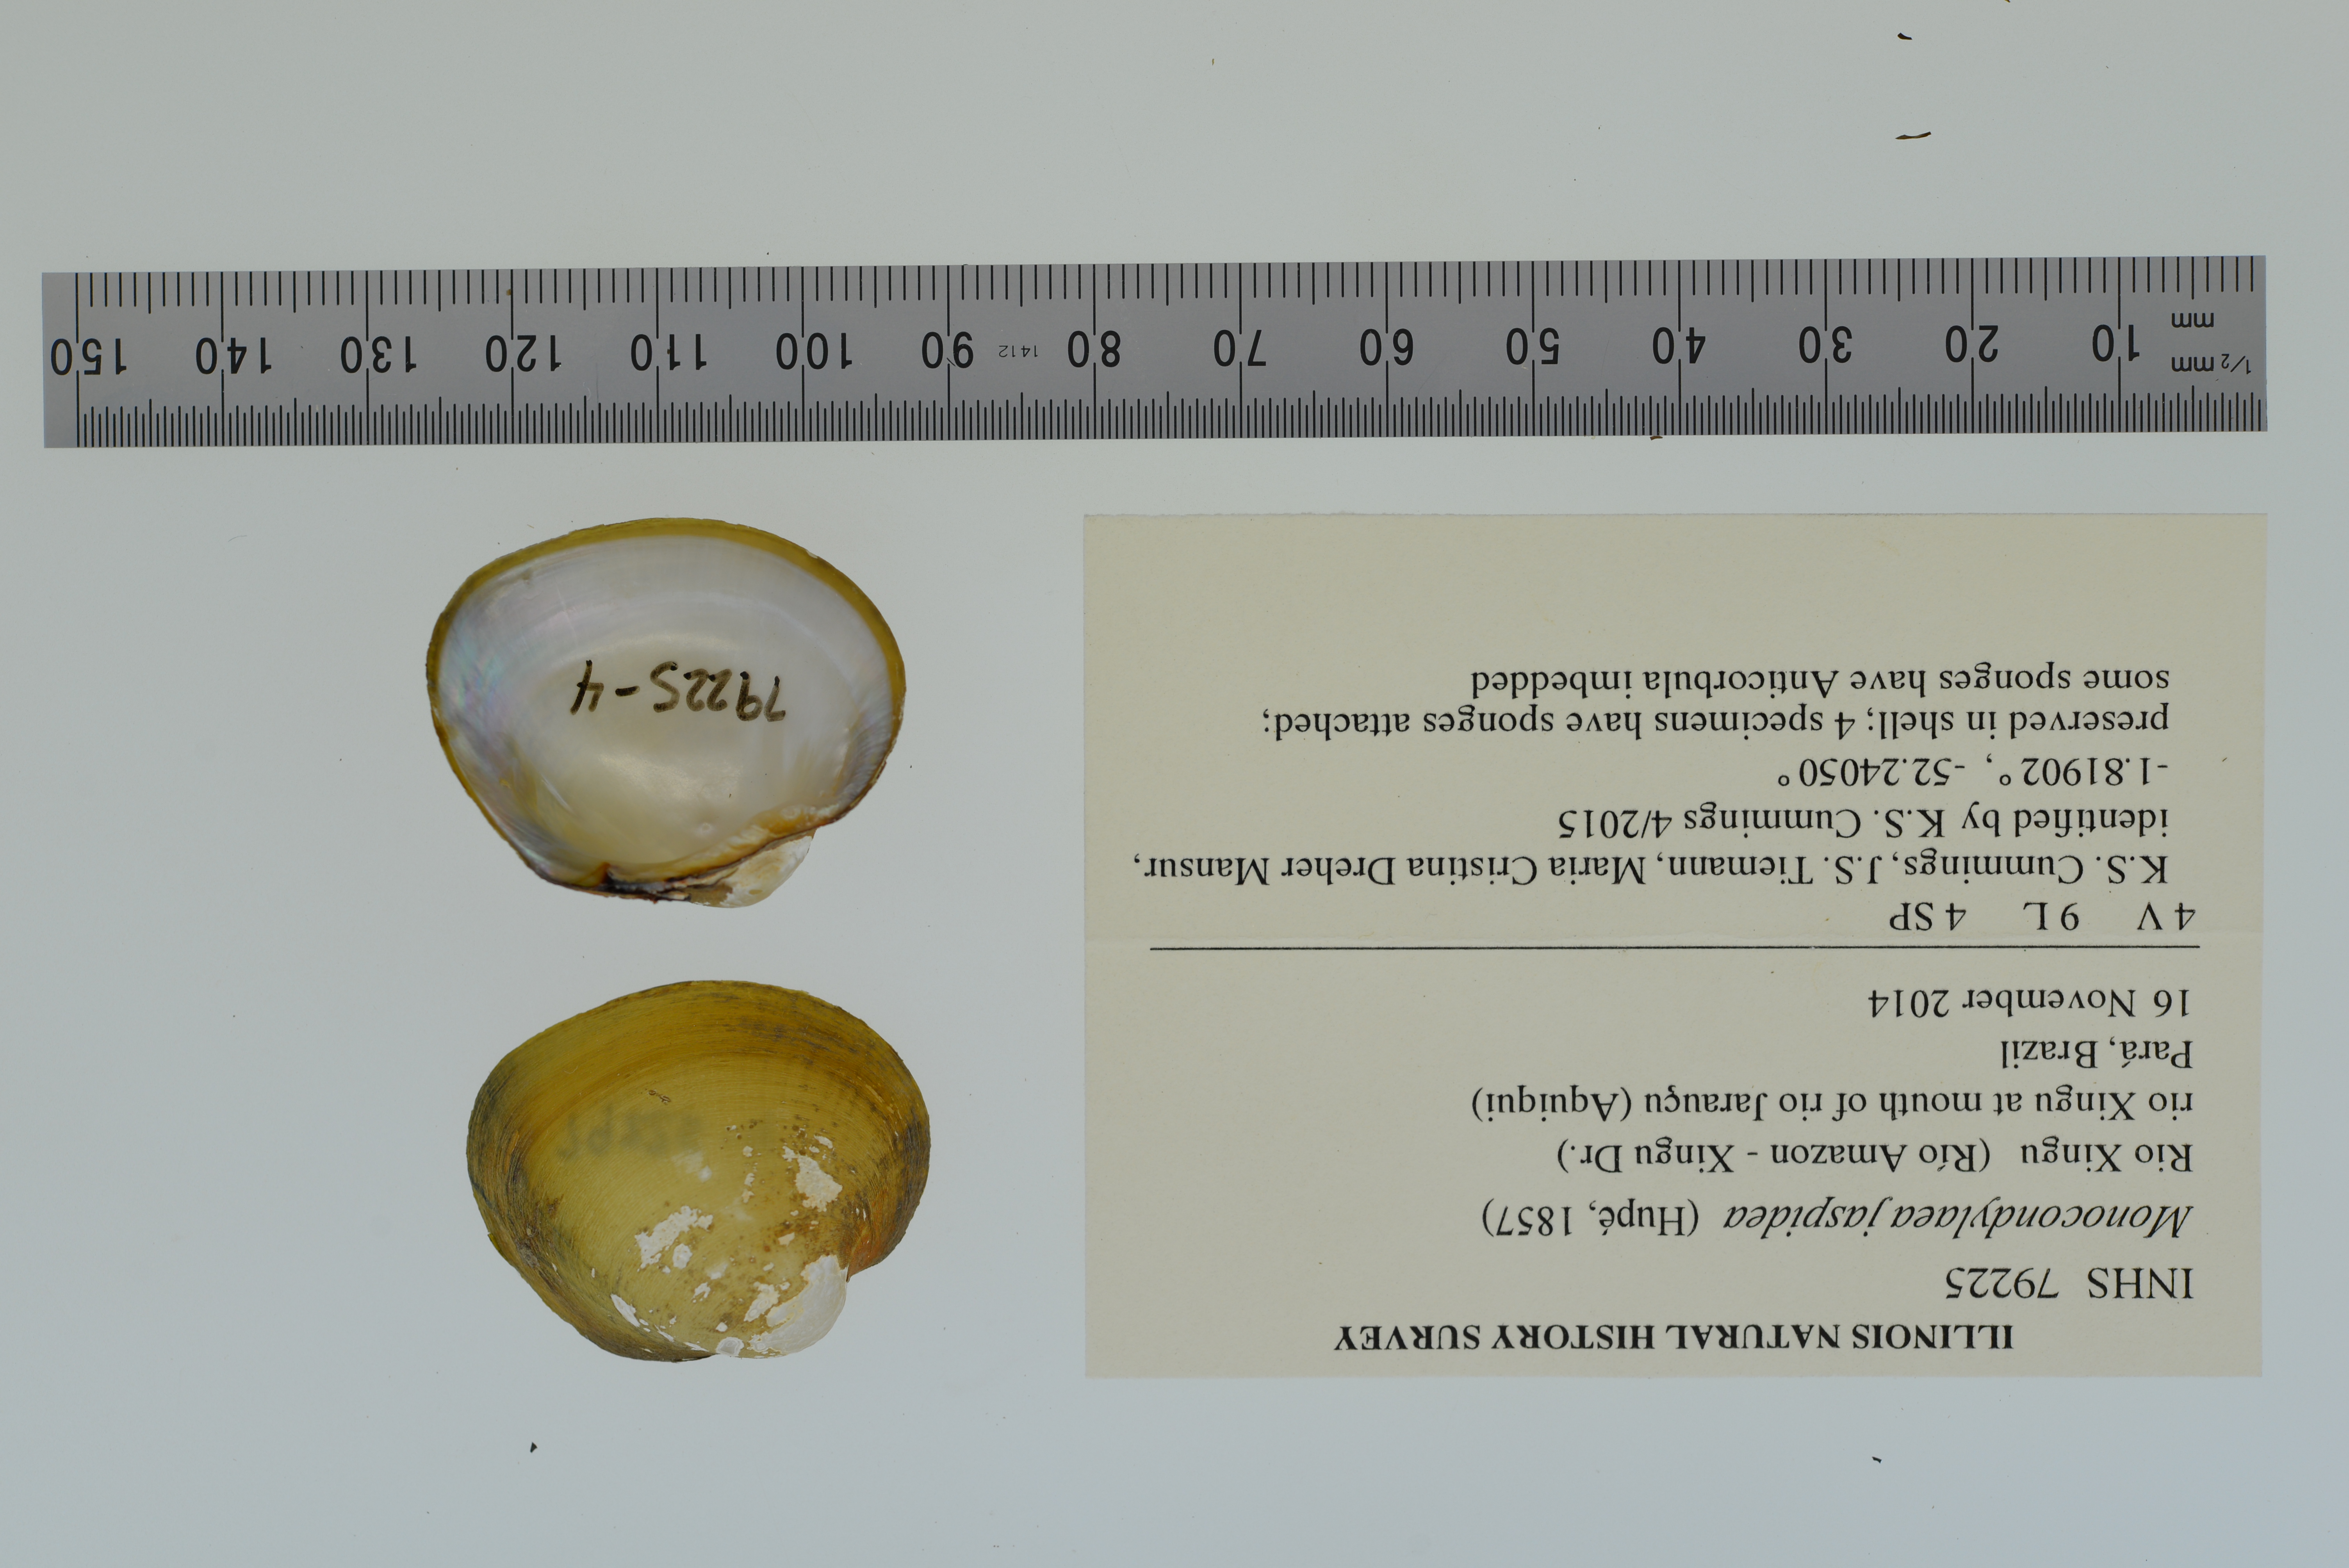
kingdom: Animalia
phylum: Mollusca
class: Bivalvia
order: Unionida
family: Mycetopodidae
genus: Monocondylaea
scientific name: Monocondylaea jaspidea
